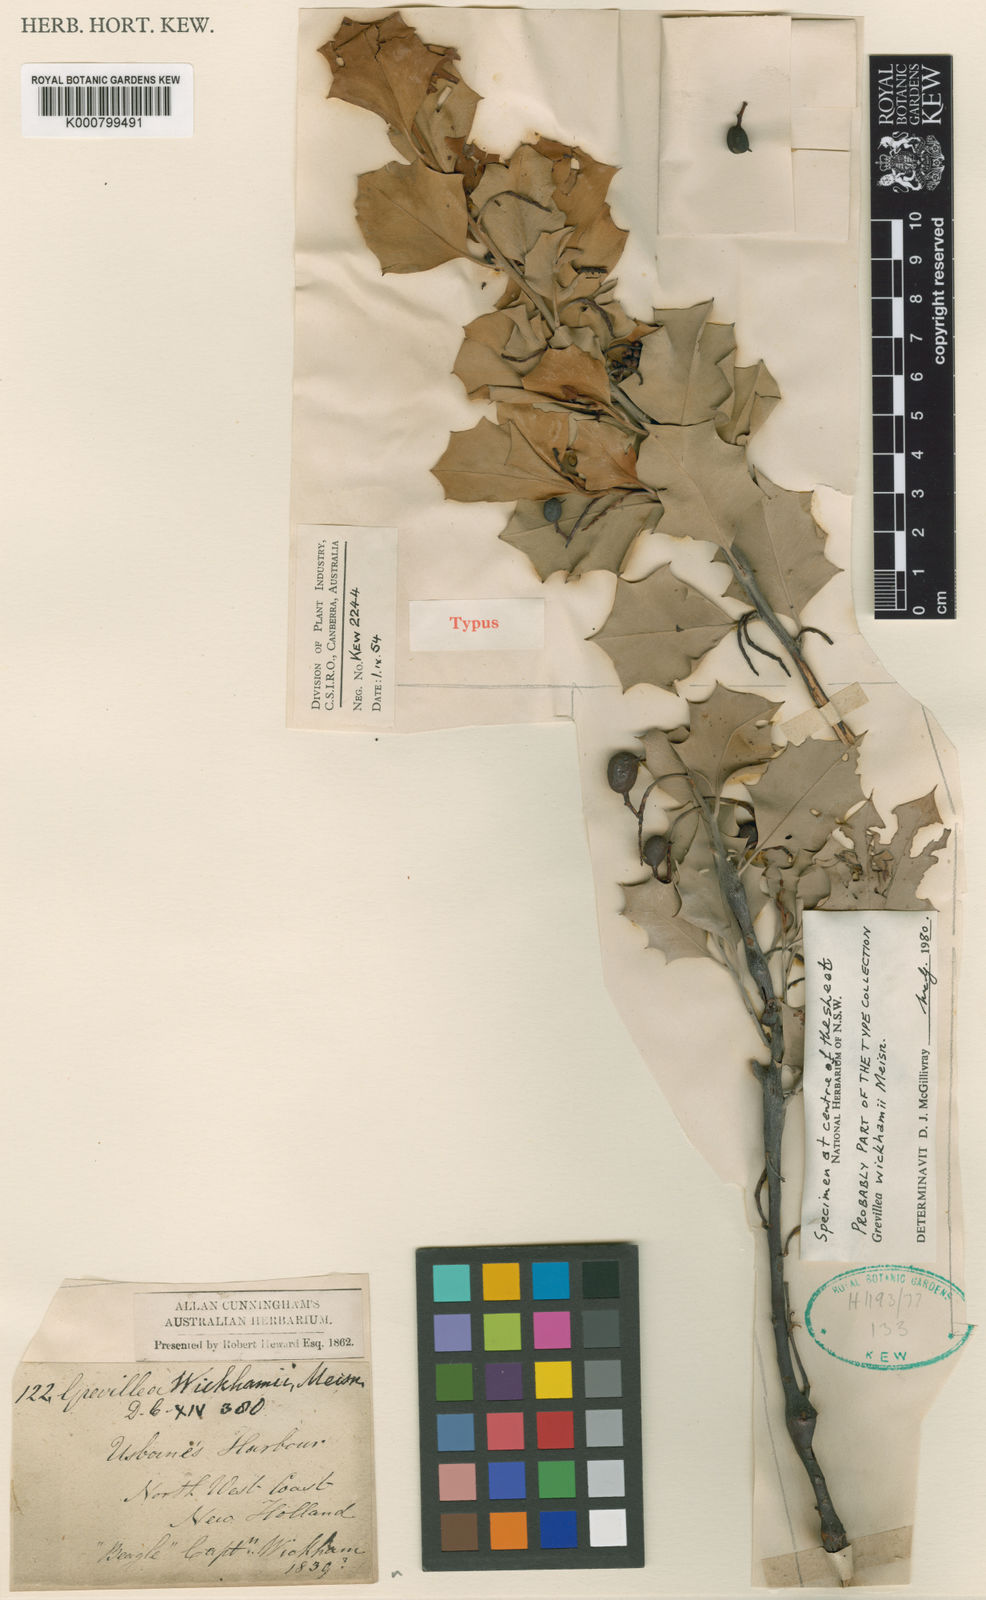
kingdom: Plantae
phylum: Tracheophyta
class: Magnoliopsida
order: Proteales
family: Proteaceae
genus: Grevillea
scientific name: Grevillea wickhamii
